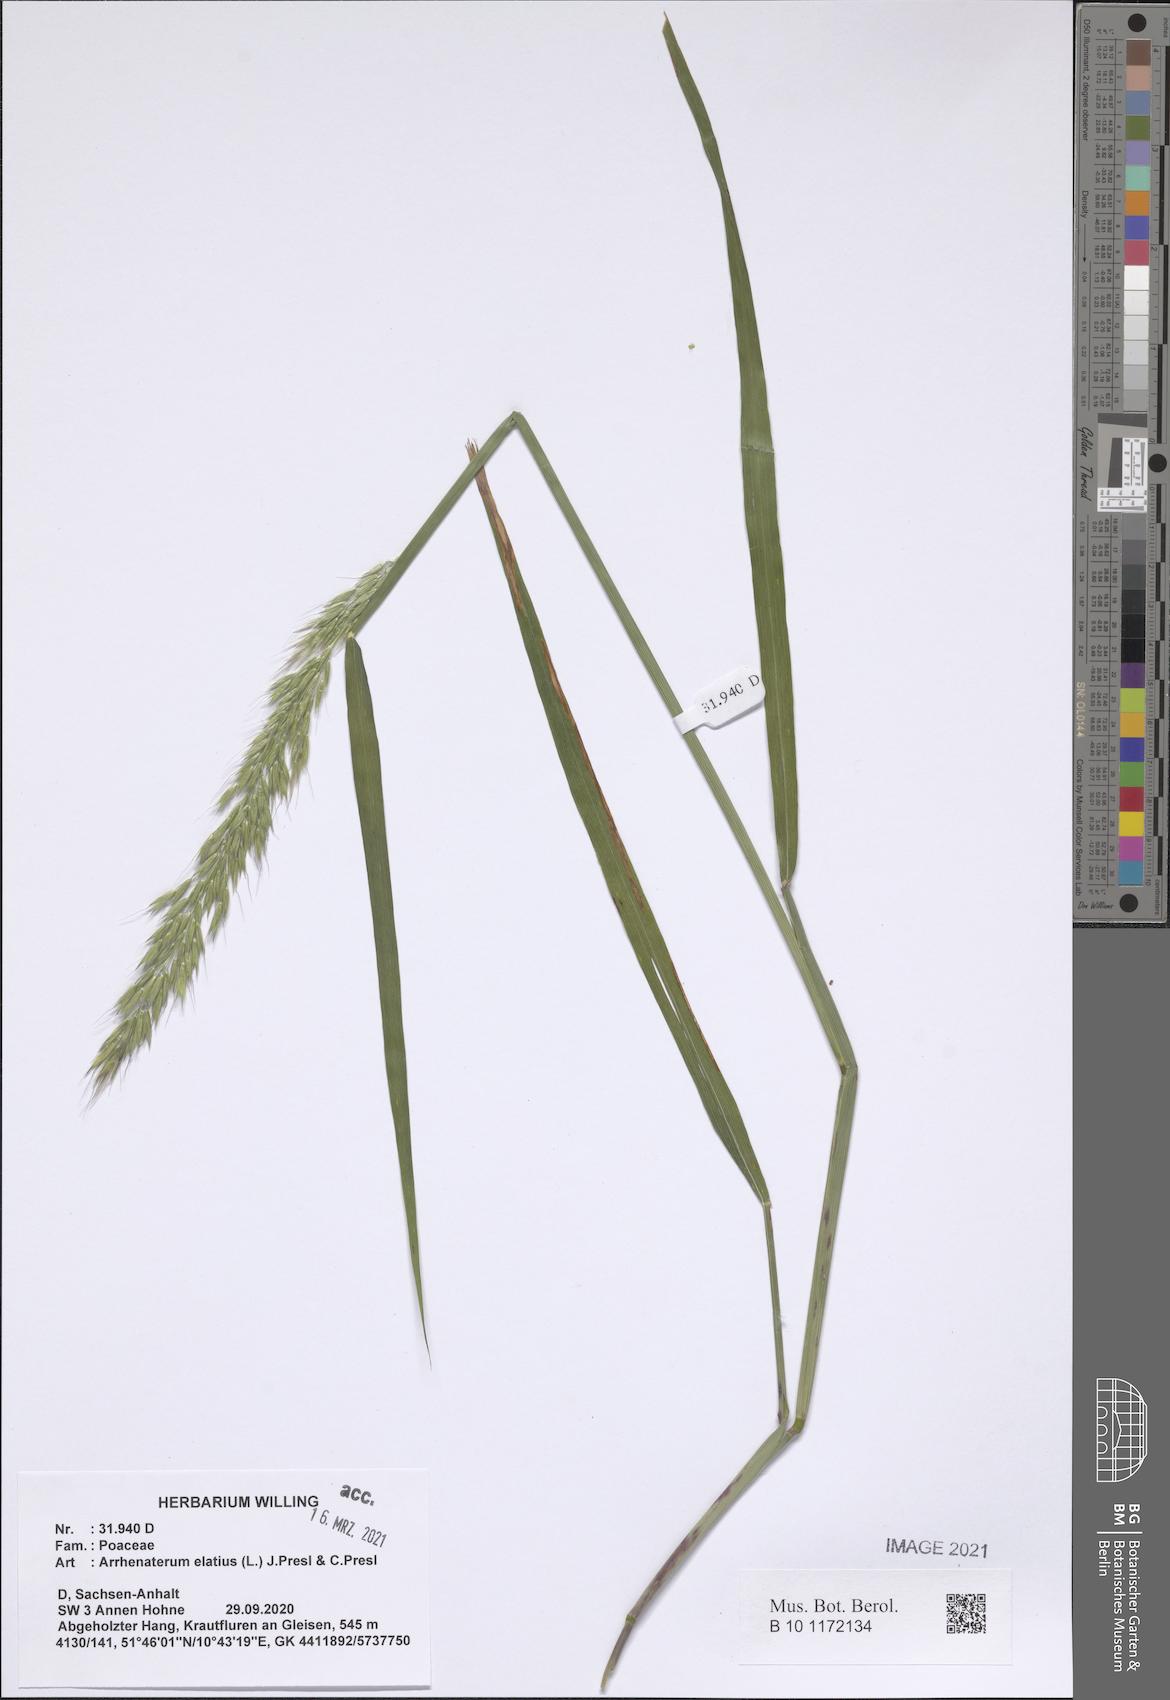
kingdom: Plantae
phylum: Tracheophyta
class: Liliopsida
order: Poales
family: Poaceae
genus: Arrhenatherum
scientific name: Arrhenatherum elatius
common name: Tall oatgrass
